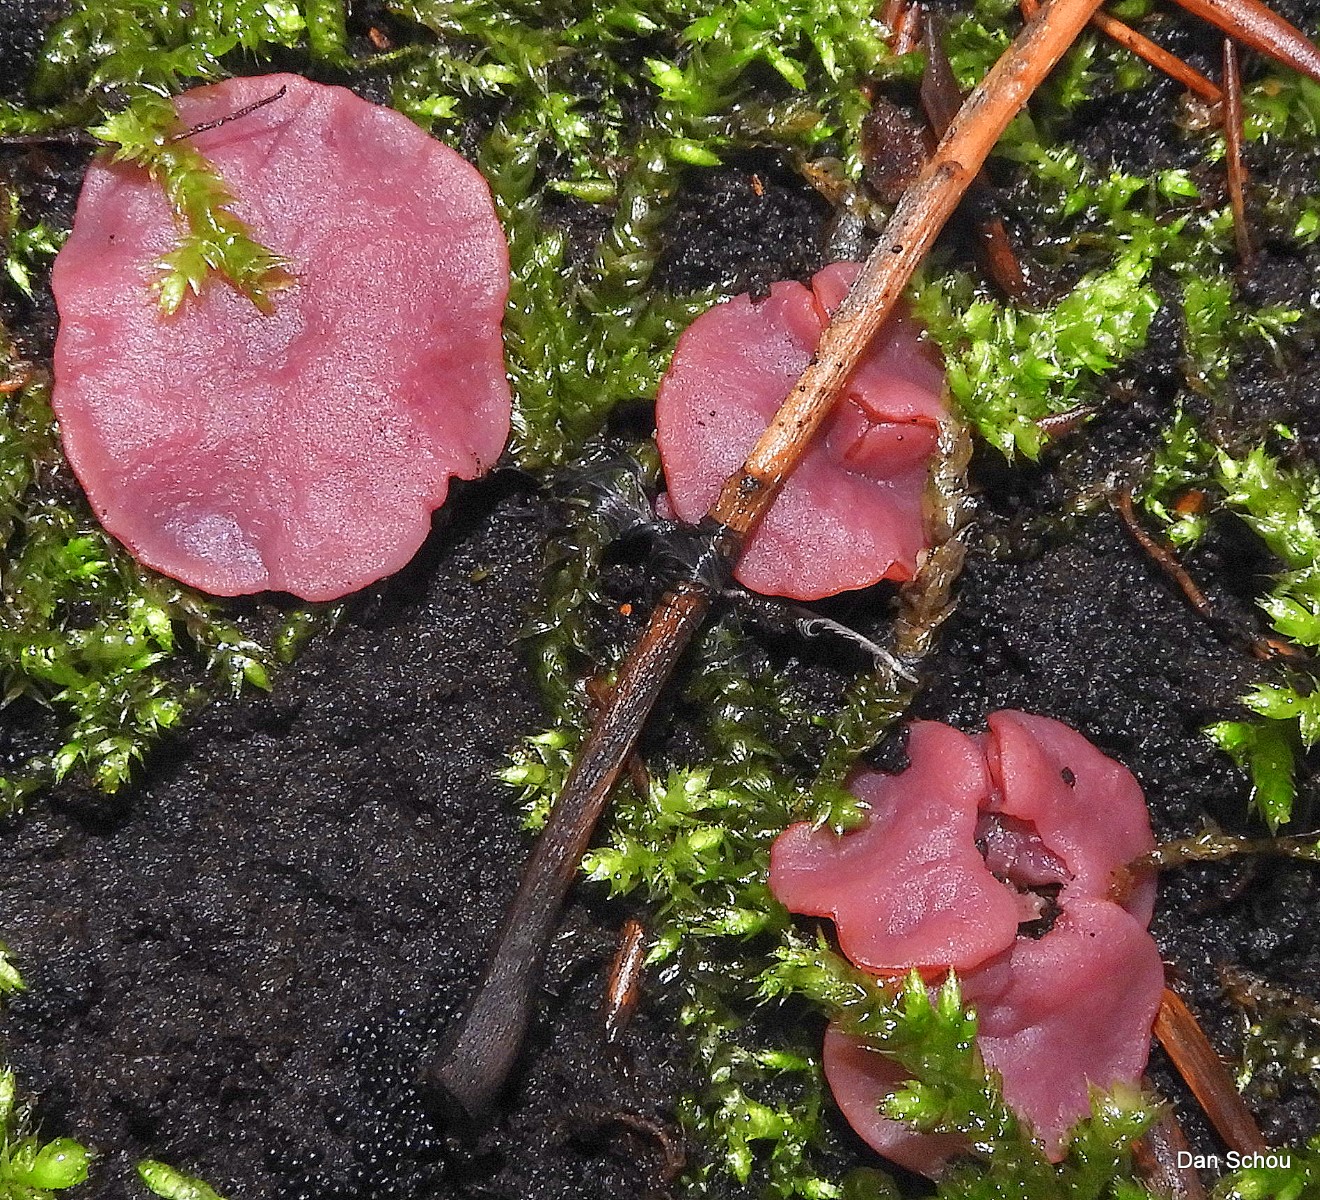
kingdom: Fungi
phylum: Ascomycota
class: Leotiomycetes
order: Helotiales
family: Gelatinodiscaceae
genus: Ascocoryne
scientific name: Ascocoryne cylichnium
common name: stor sejskive
